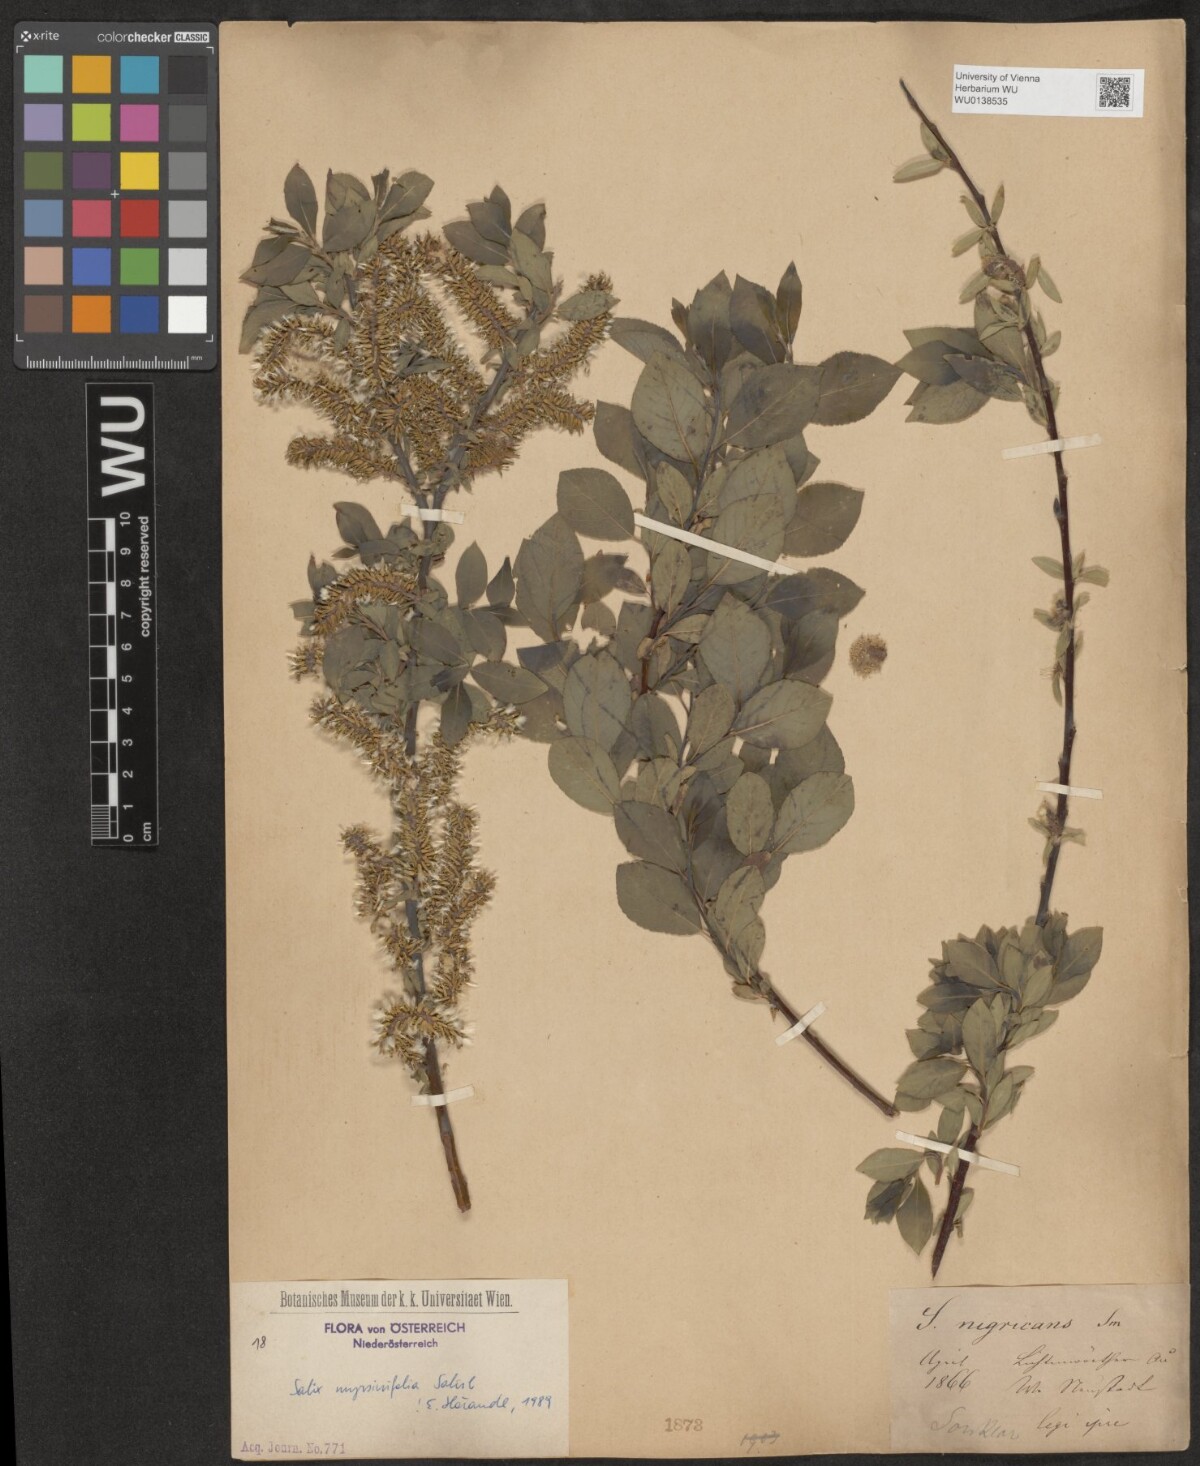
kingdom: Plantae
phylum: Tracheophyta
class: Magnoliopsida
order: Malpighiales
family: Salicaceae
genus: Salix
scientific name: Salix myrsinifolia
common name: Dark-leaved willow
